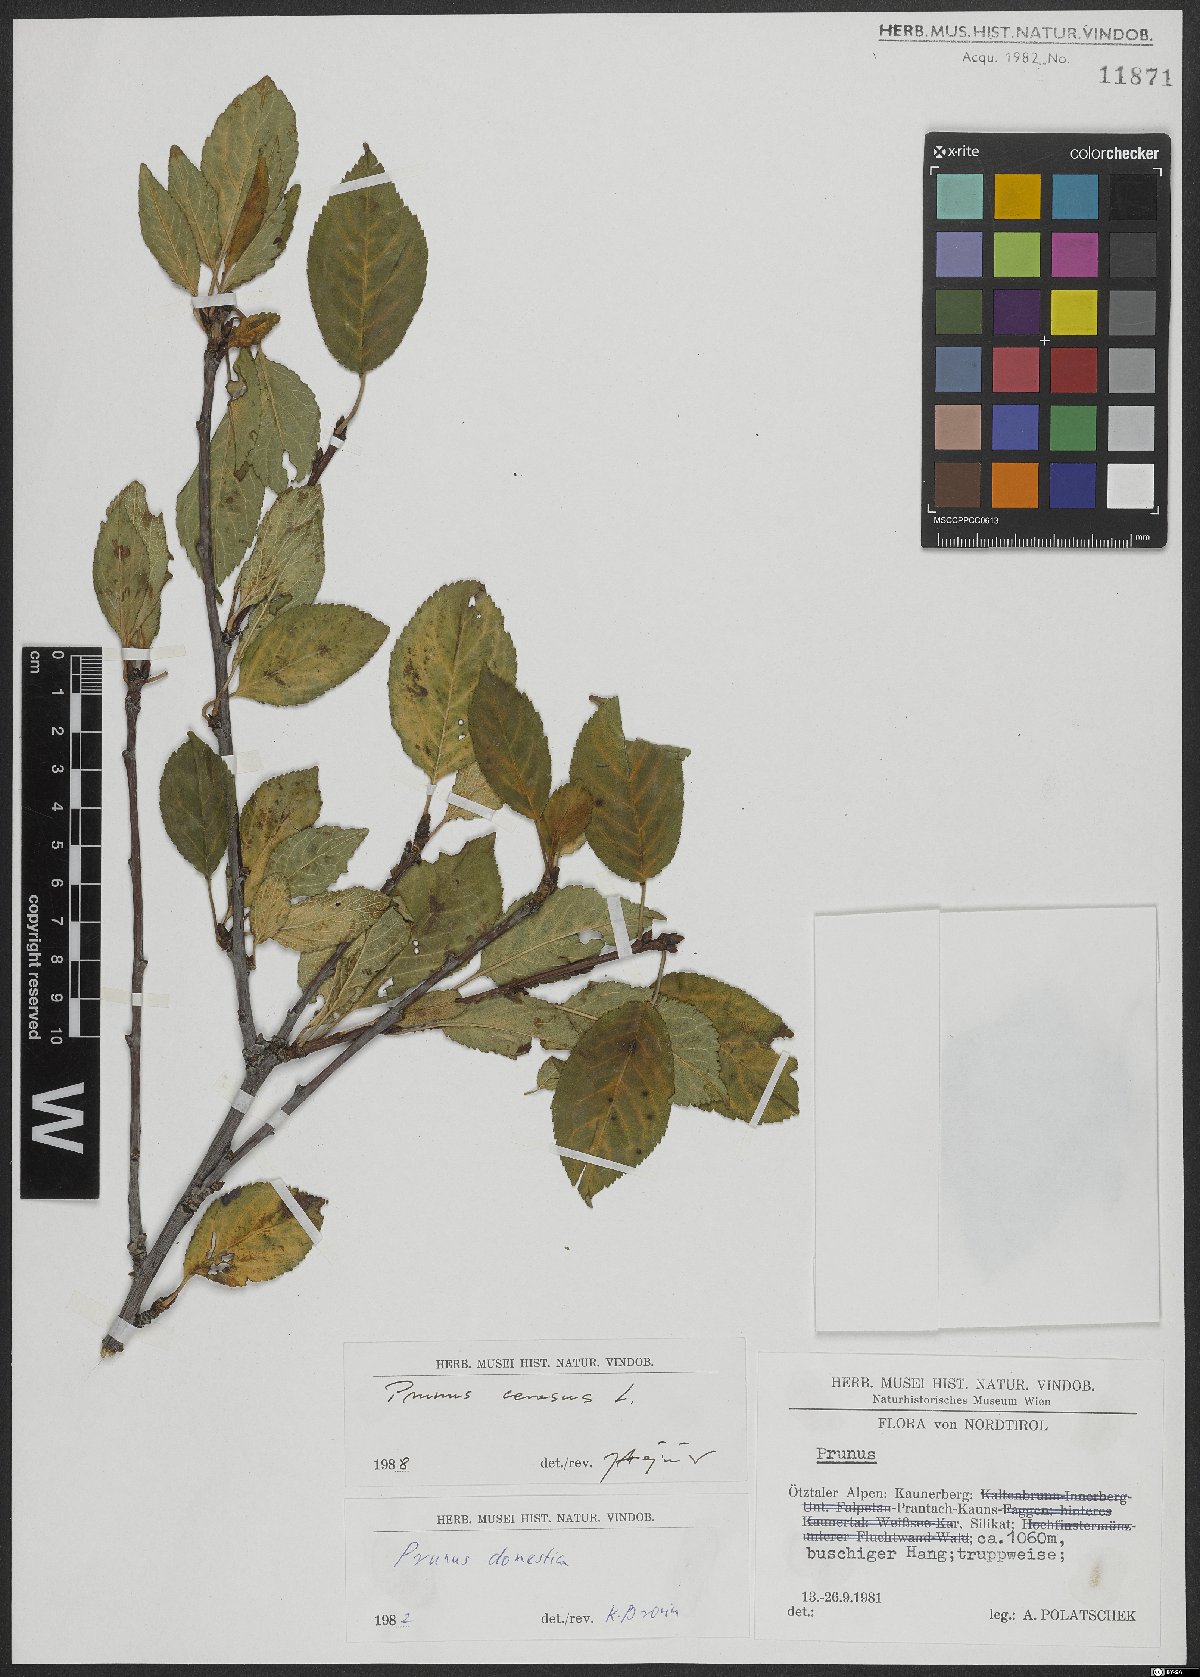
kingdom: Plantae
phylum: Tracheophyta
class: Magnoliopsida
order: Rosales
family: Rosaceae
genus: Prunus
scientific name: Prunus cerasus
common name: Morello cherry
